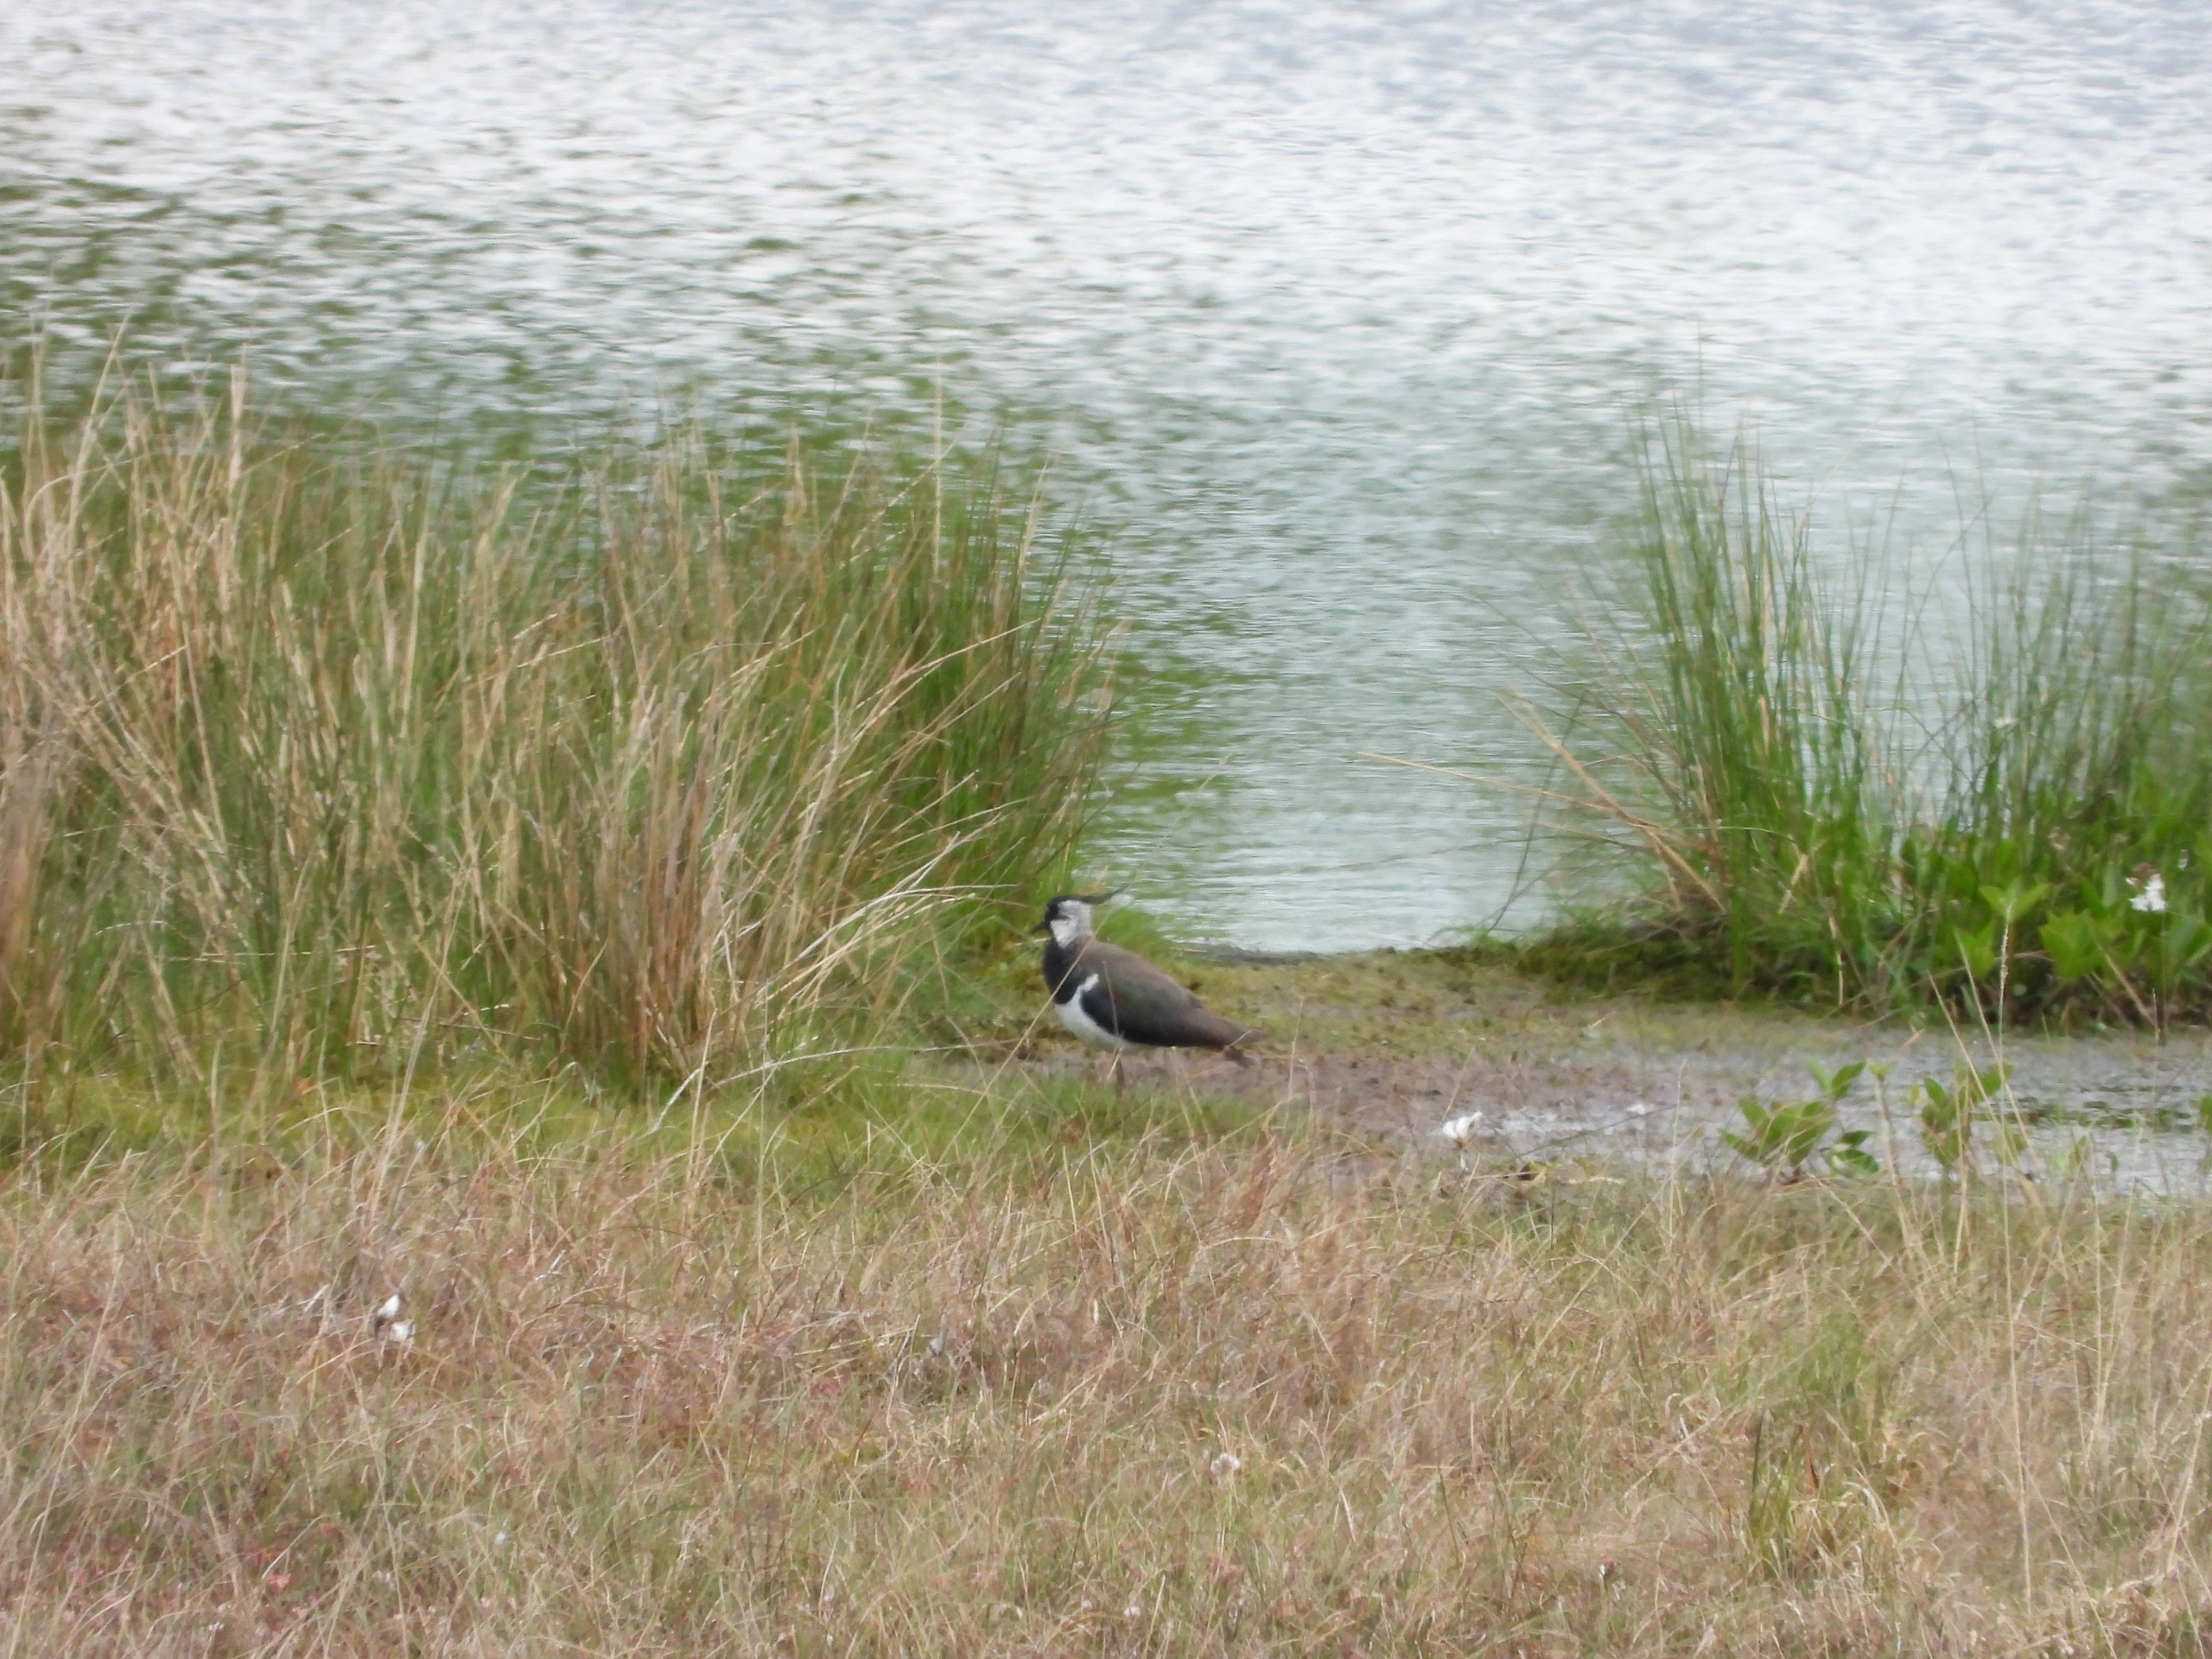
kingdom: Animalia
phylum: Chordata
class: Aves
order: Charadriiformes
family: Charadriidae
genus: Vanellus
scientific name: Vanellus vanellus
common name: Vibe
